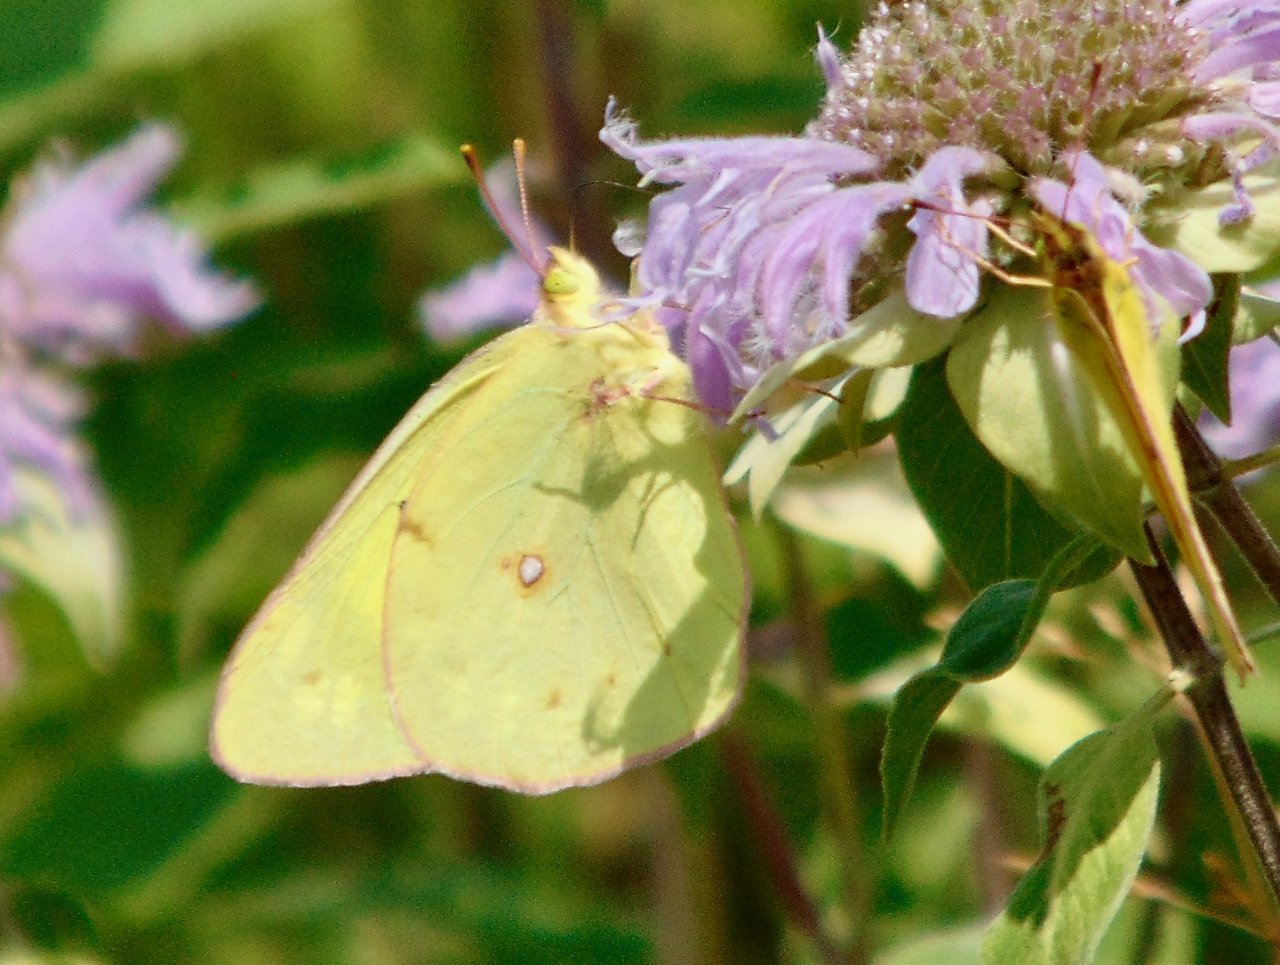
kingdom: Animalia
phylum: Arthropoda
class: Insecta
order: Lepidoptera
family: Pieridae
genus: Colias
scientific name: Colias philodice
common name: Clouded Sulphur
